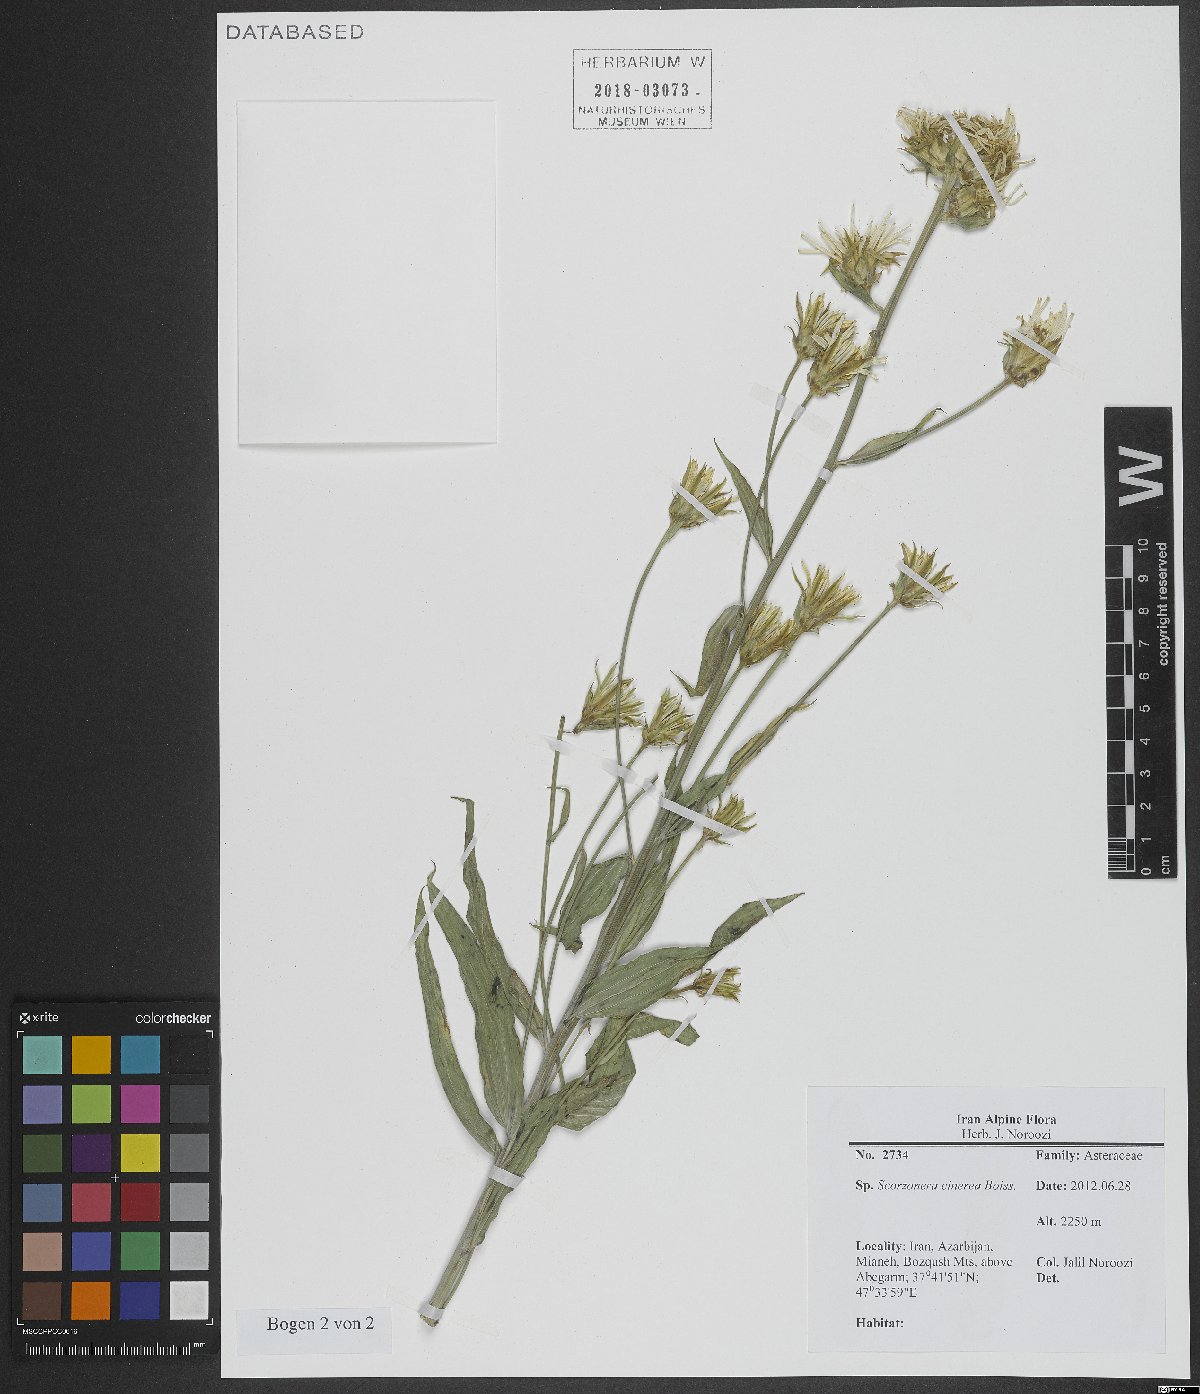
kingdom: Plantae
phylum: Tracheophyta
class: Magnoliopsida
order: Asterales
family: Asteraceae
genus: Cigdemia
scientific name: Cigdemia cinerea
